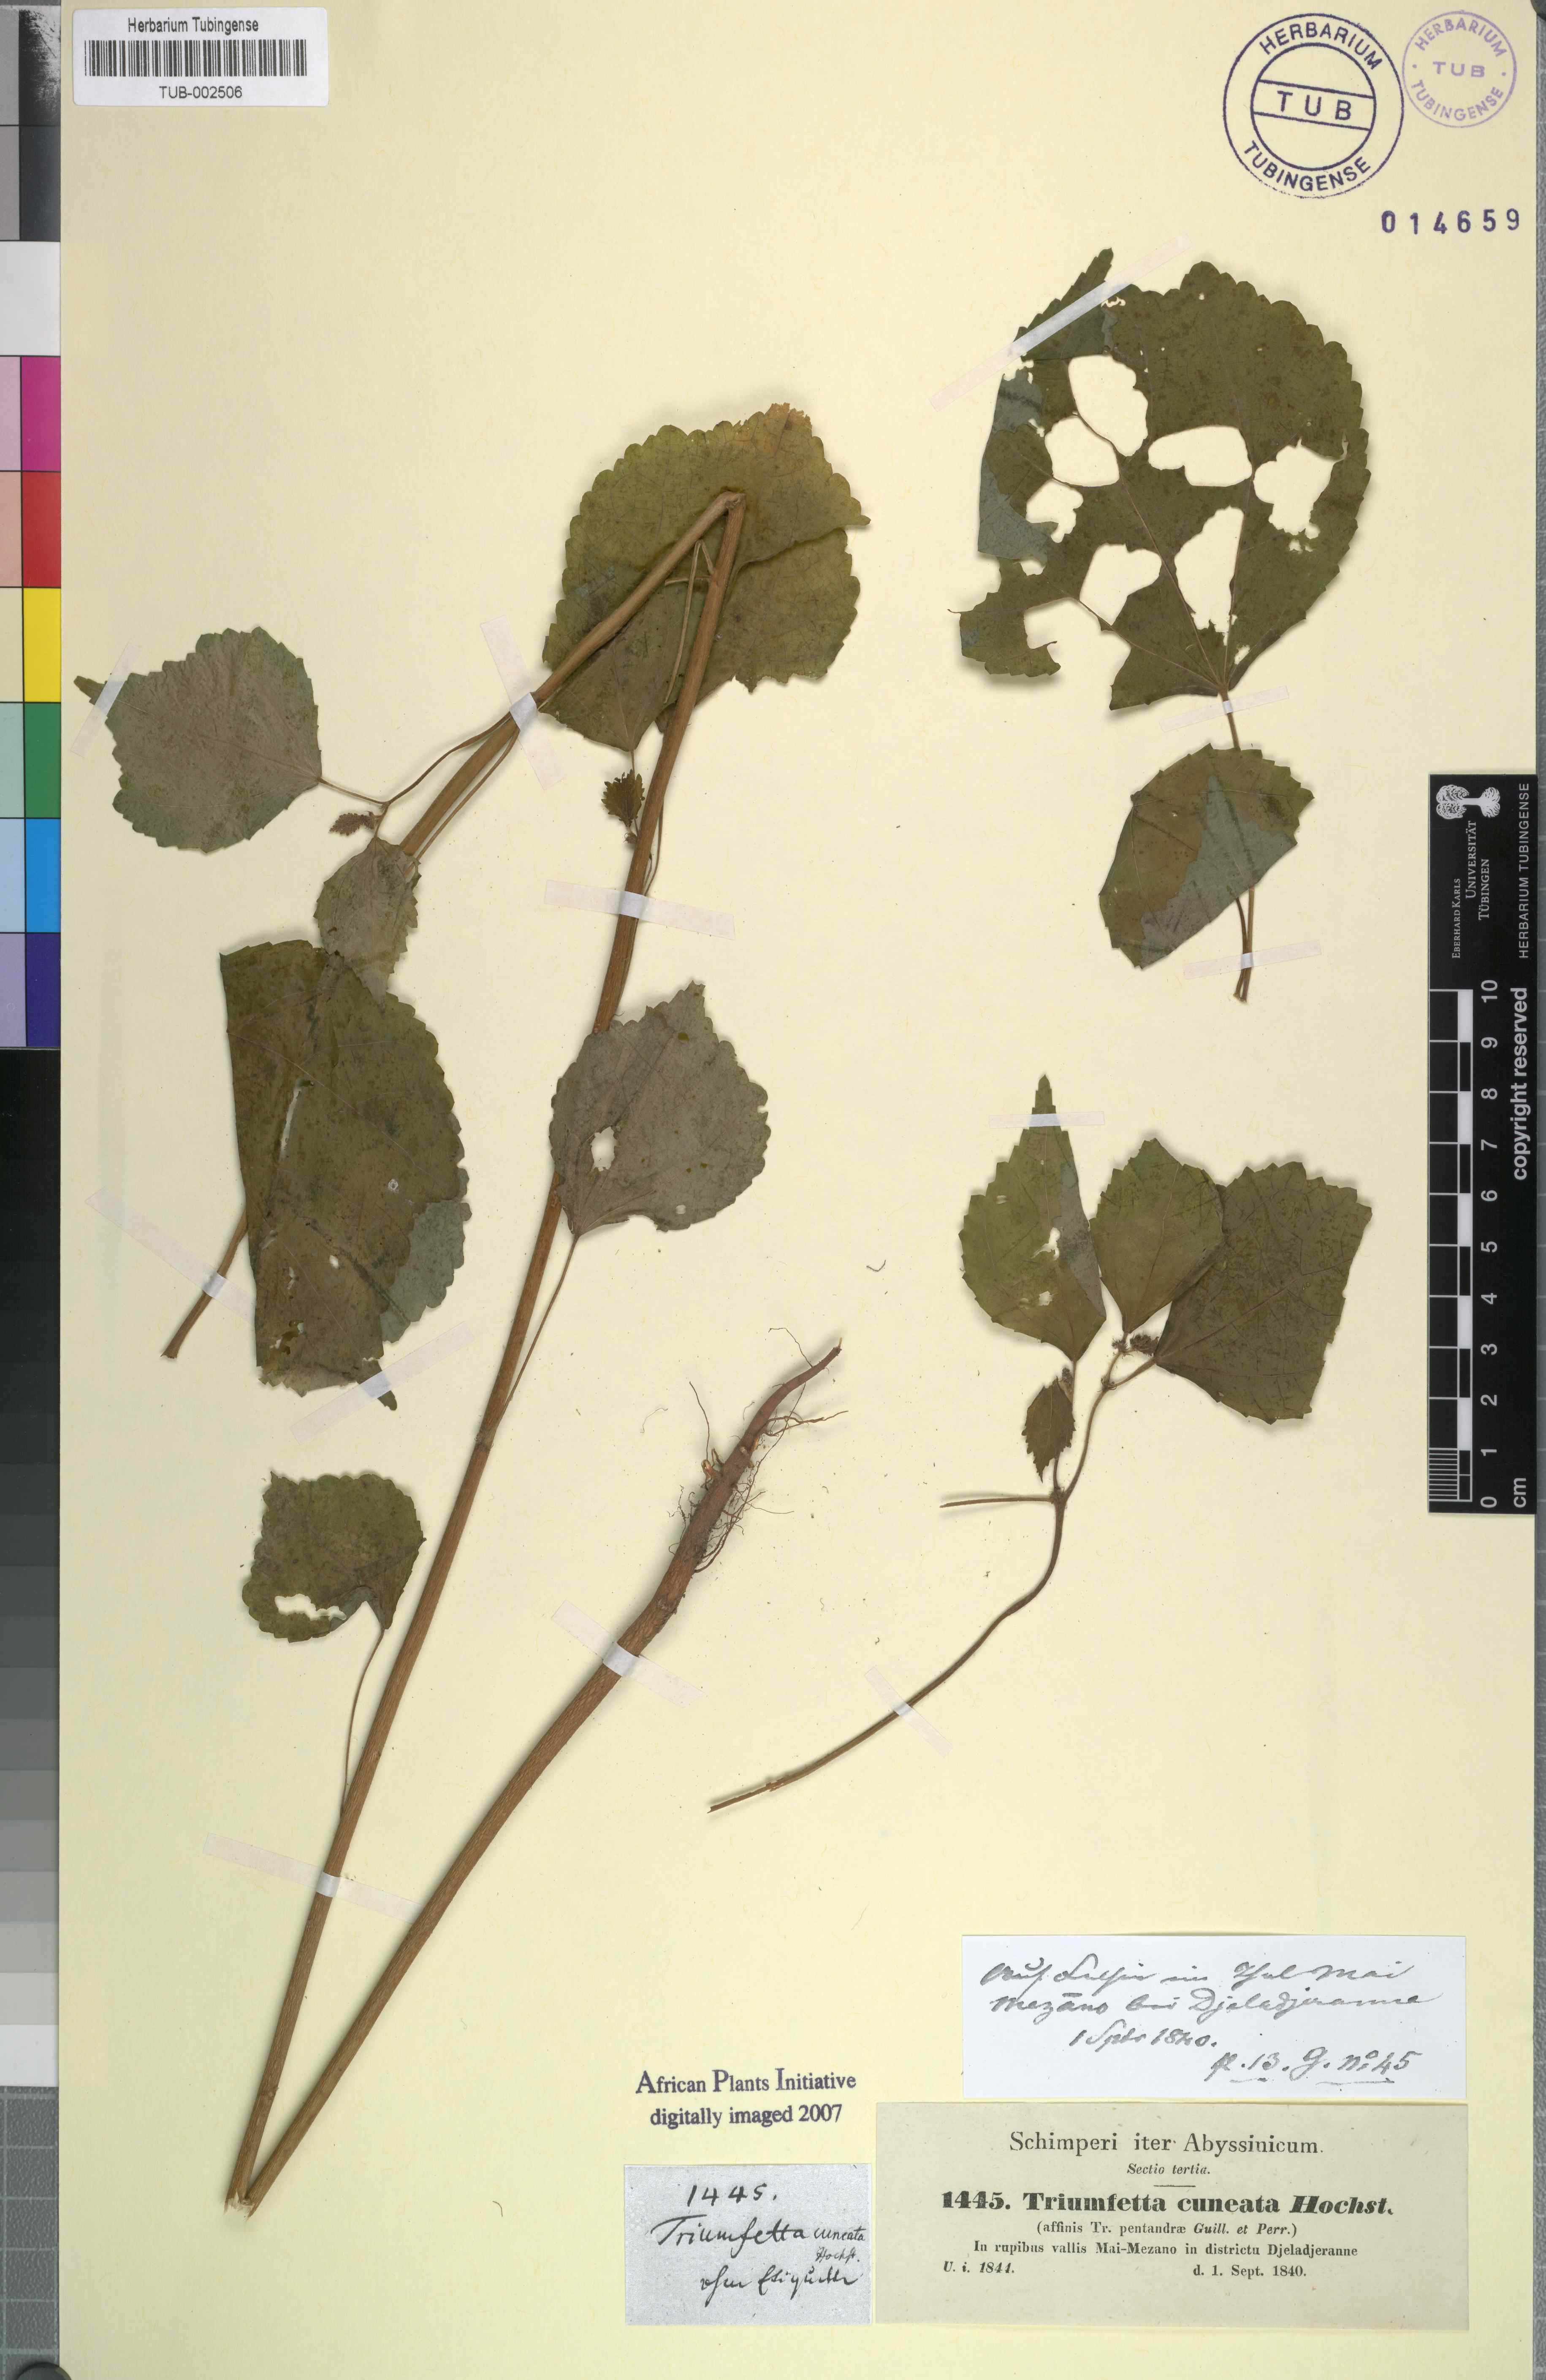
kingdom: Plantae
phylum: Tracheophyta
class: Magnoliopsida
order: Malvales
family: Malvaceae
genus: Triumfetta
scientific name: Triumfetta pentandra
